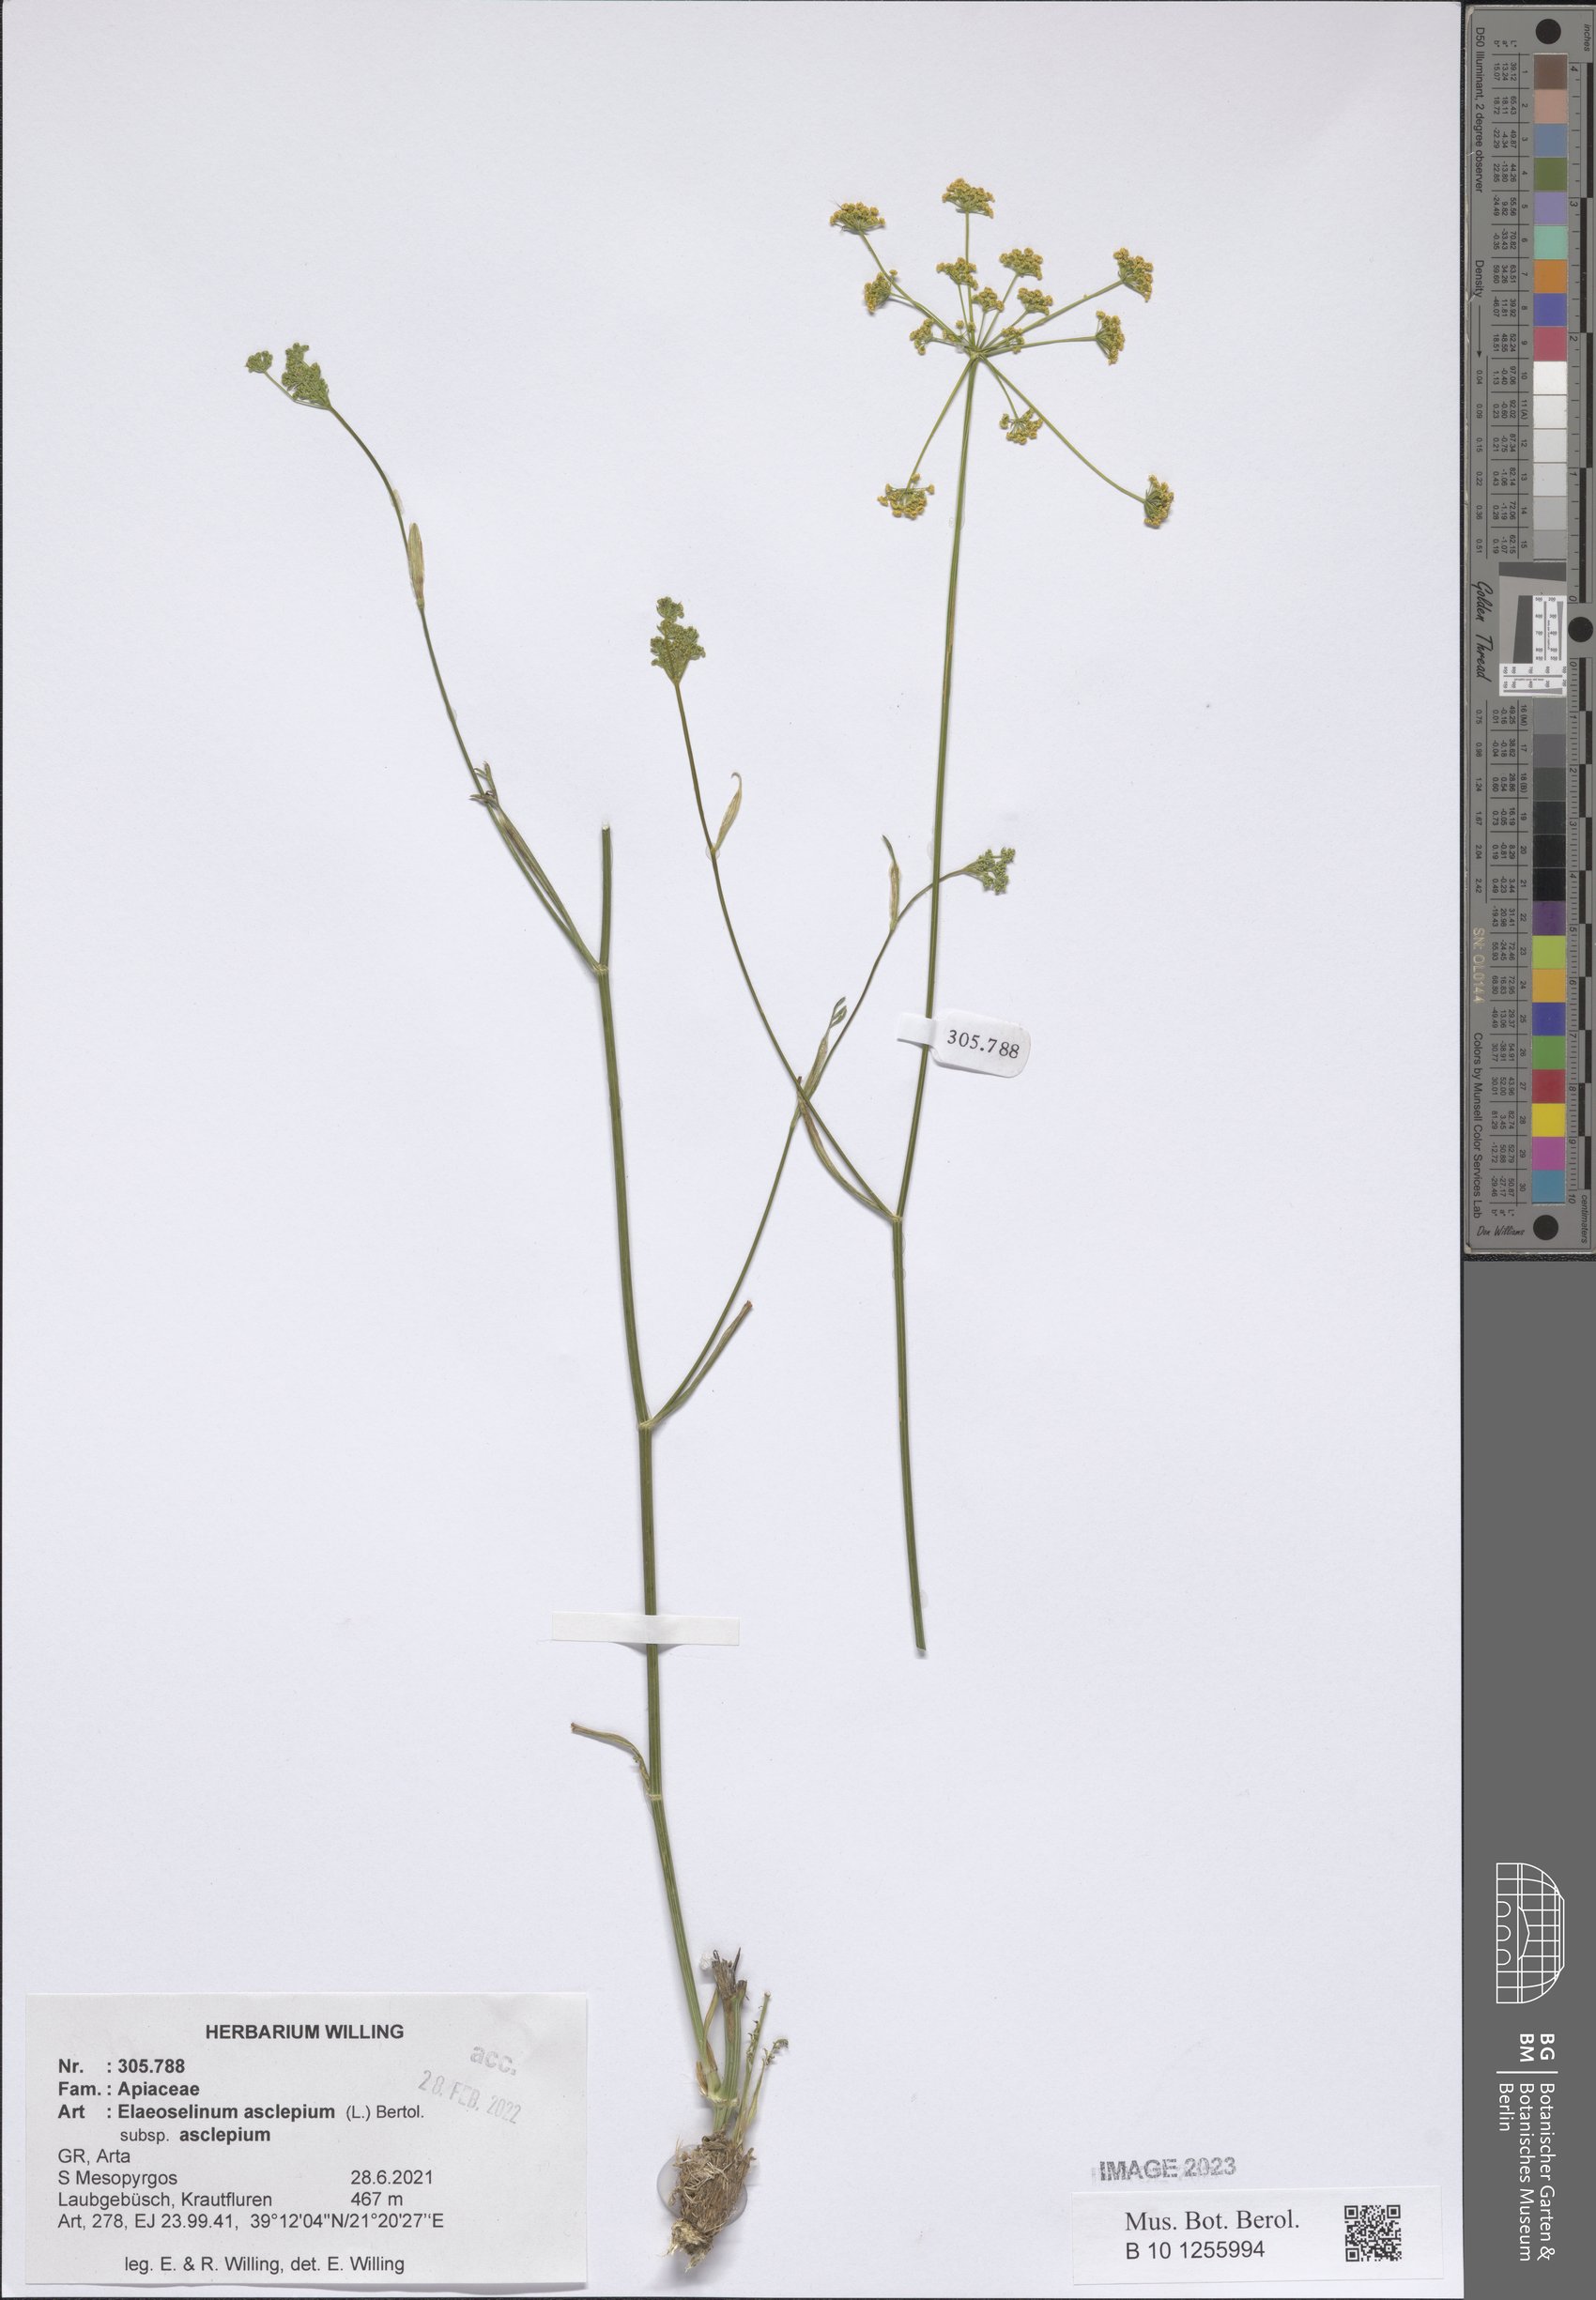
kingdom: Plantae
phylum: Tracheophyta
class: Magnoliopsida
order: Apiales
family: Apiaceae
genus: Thapsia
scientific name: Thapsia asclepium
